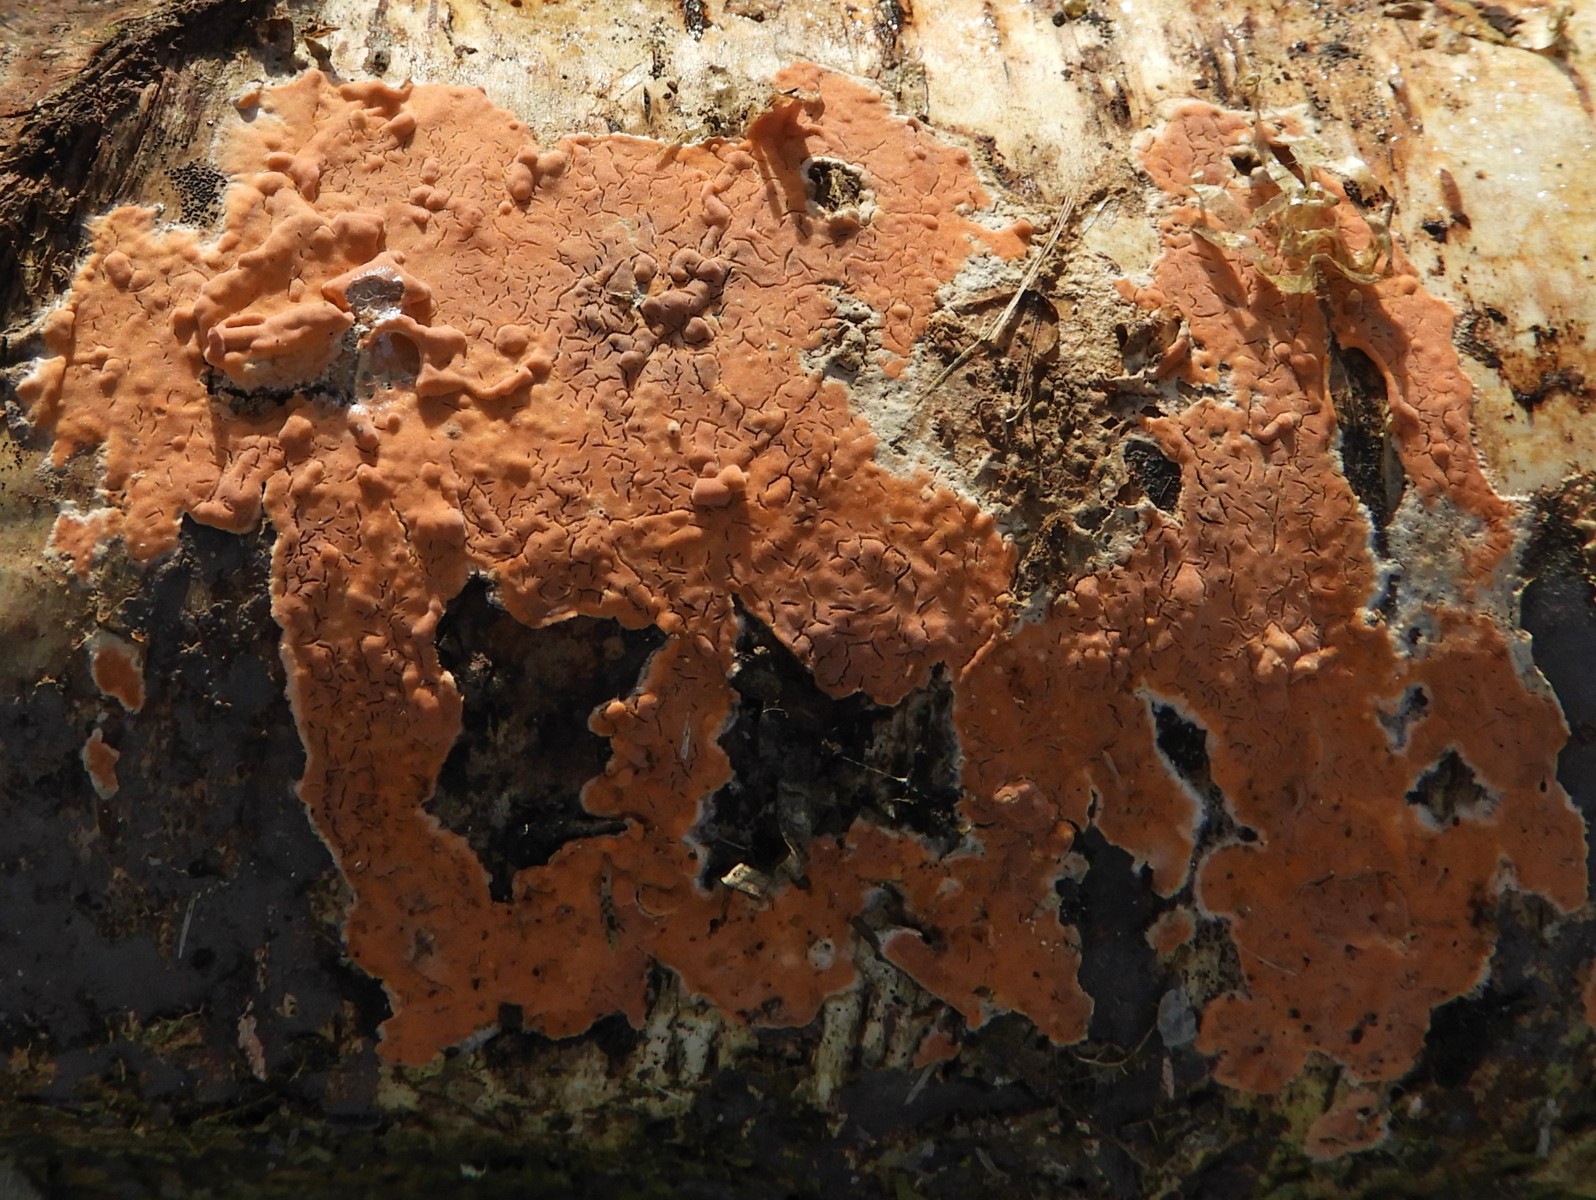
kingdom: Fungi
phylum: Basidiomycota
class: Agaricomycetes
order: Russulales
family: Peniophoraceae
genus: Peniophora
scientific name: Peniophora incarnata
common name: laksefarvet voksskind
